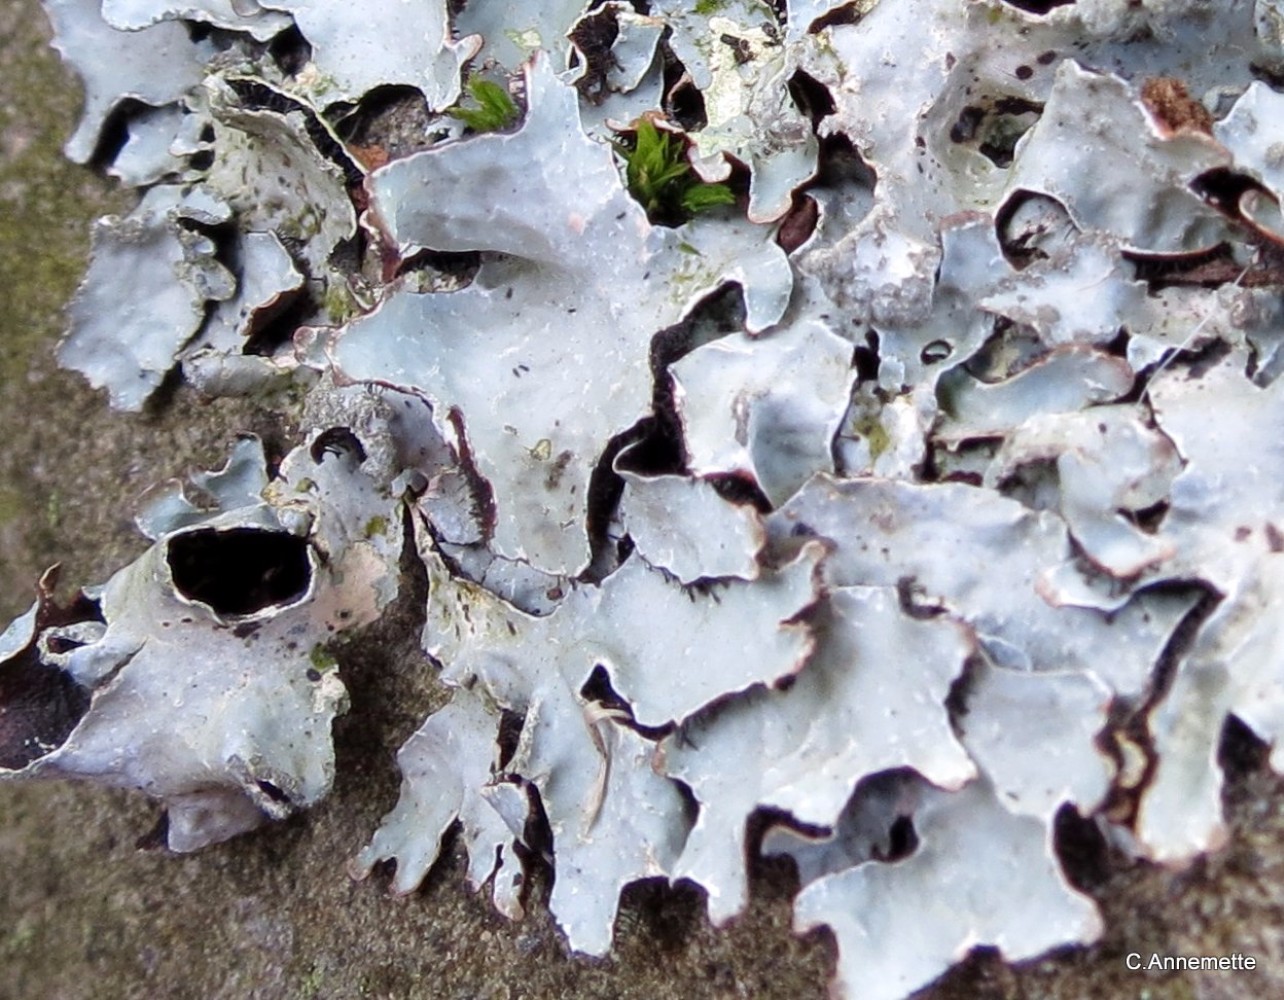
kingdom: Fungi
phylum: Ascomycota
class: Lecanoromycetes
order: Lecanorales
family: Parmeliaceae
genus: Parmelia
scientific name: Parmelia sulcata
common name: rynket skållav
